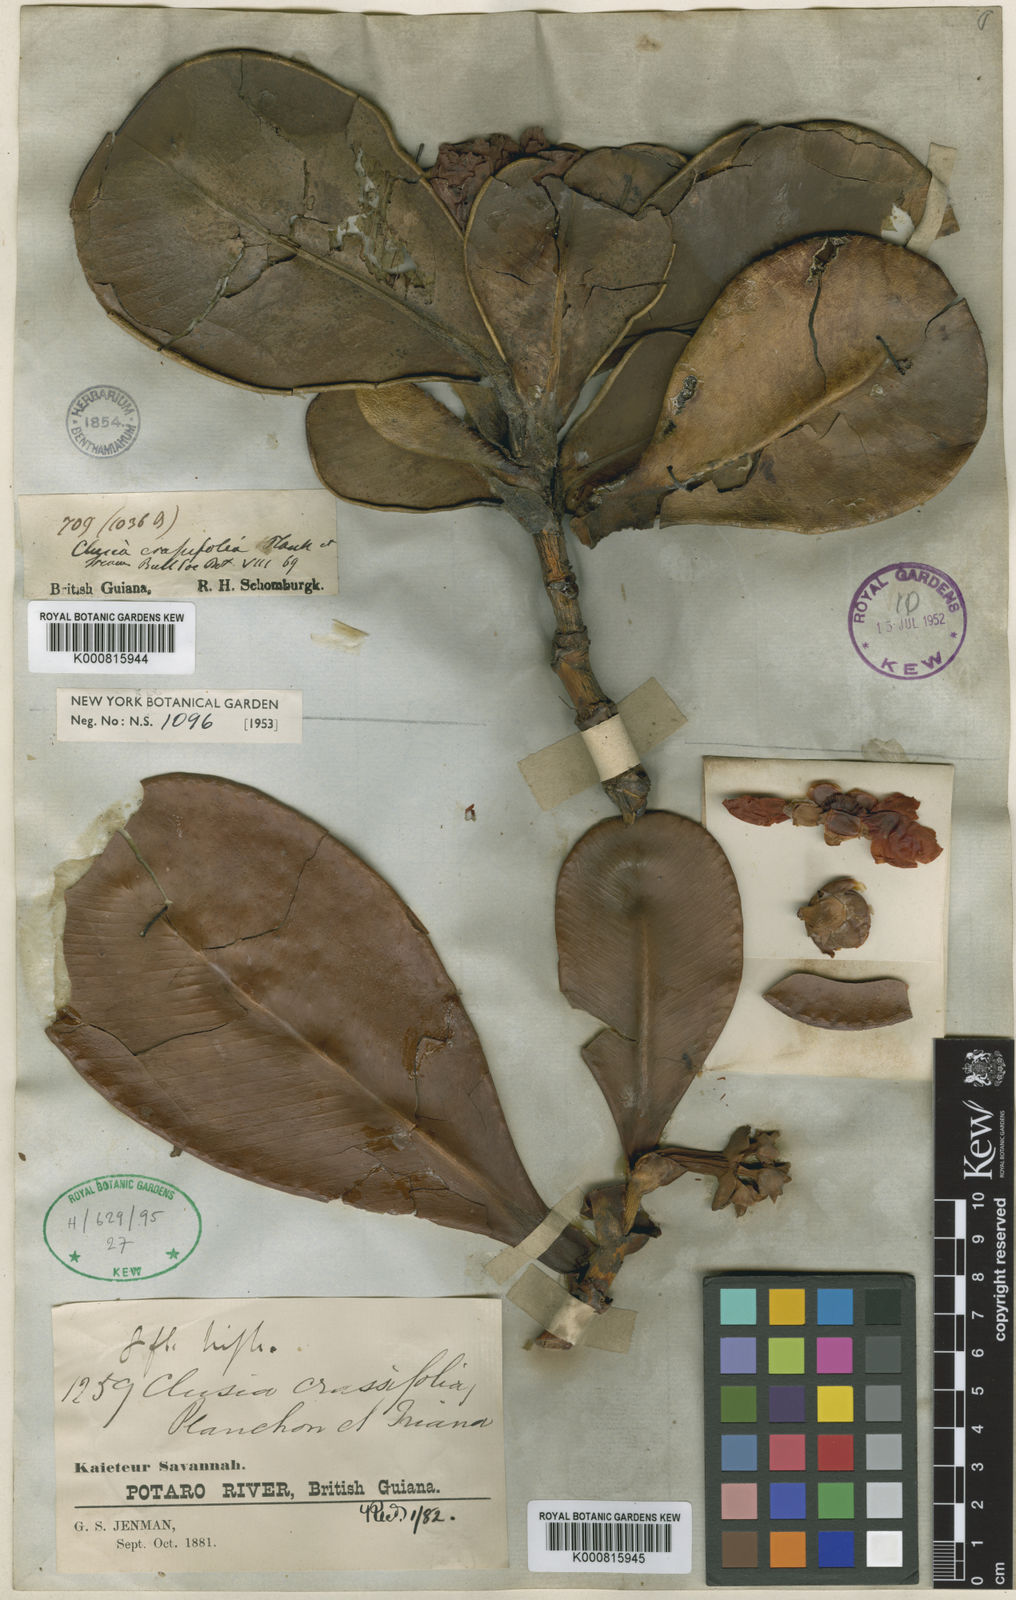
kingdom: Plantae
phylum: Tracheophyta
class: Magnoliopsida
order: Malpighiales
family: Clusiaceae
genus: Clusia
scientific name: Clusia crassifolia
